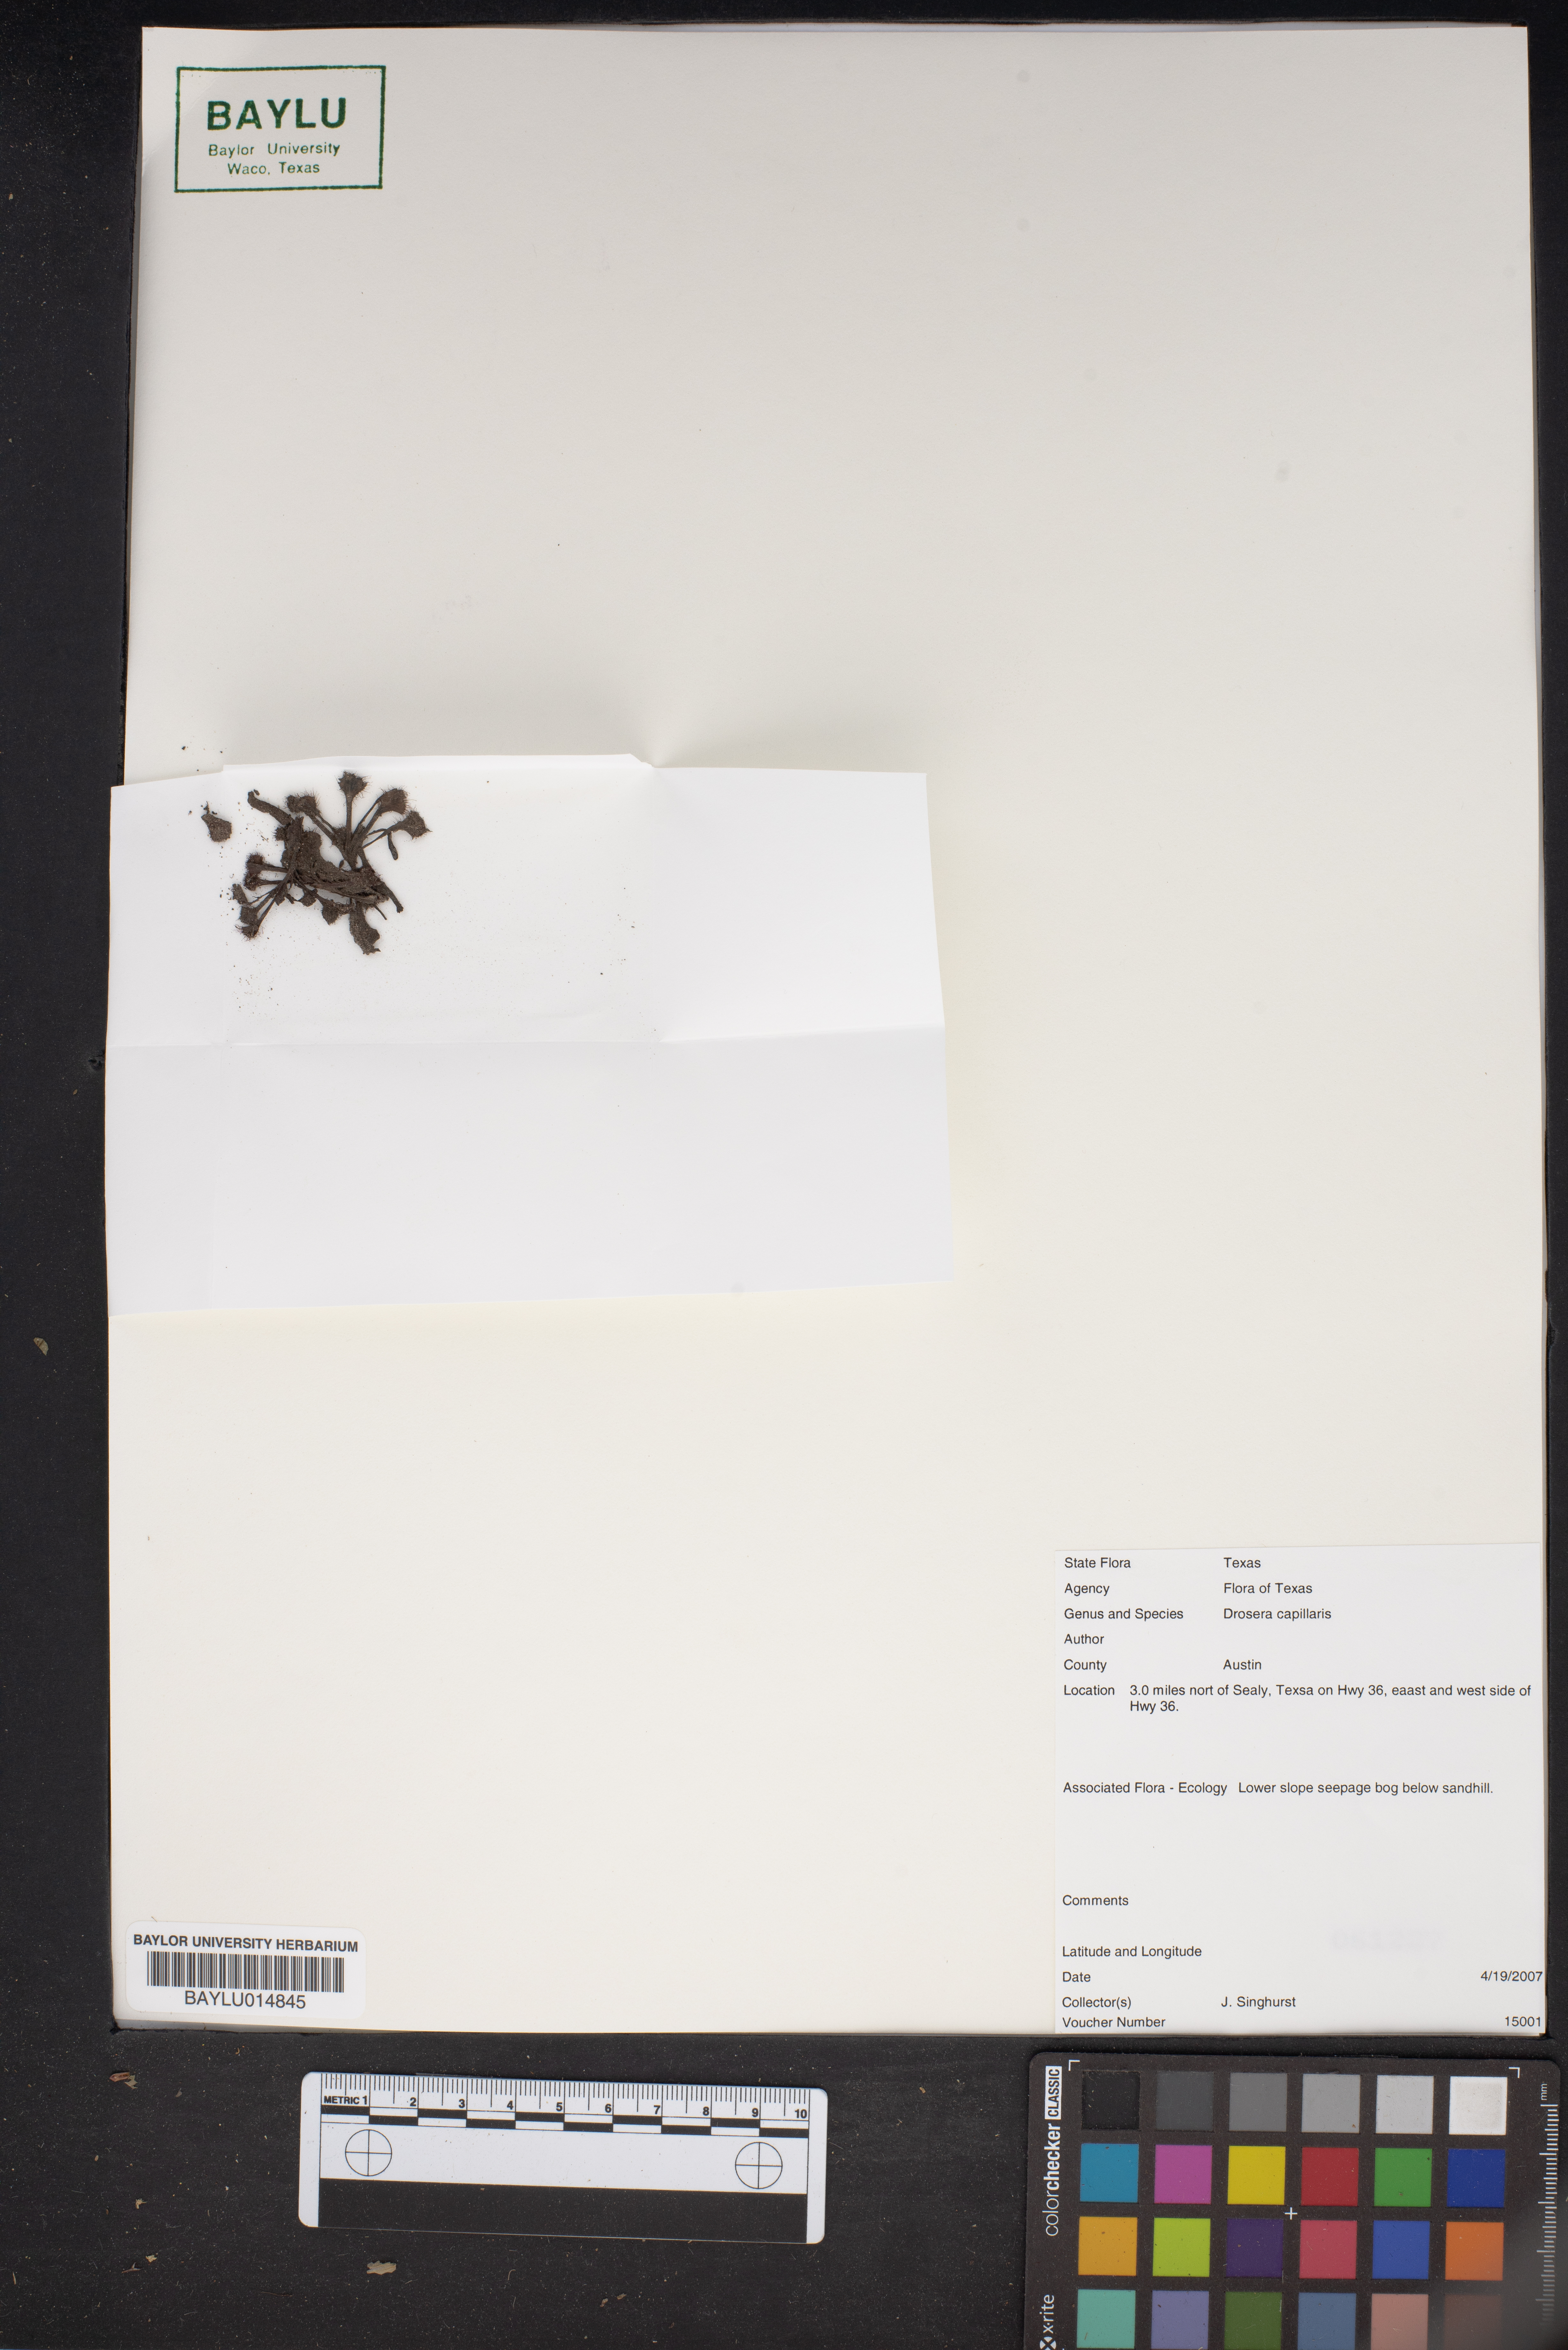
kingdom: Plantae
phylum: Tracheophyta
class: Magnoliopsida
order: Caryophyllales
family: Droseraceae
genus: Drosera
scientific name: Drosera capillaris
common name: Pink sundew
